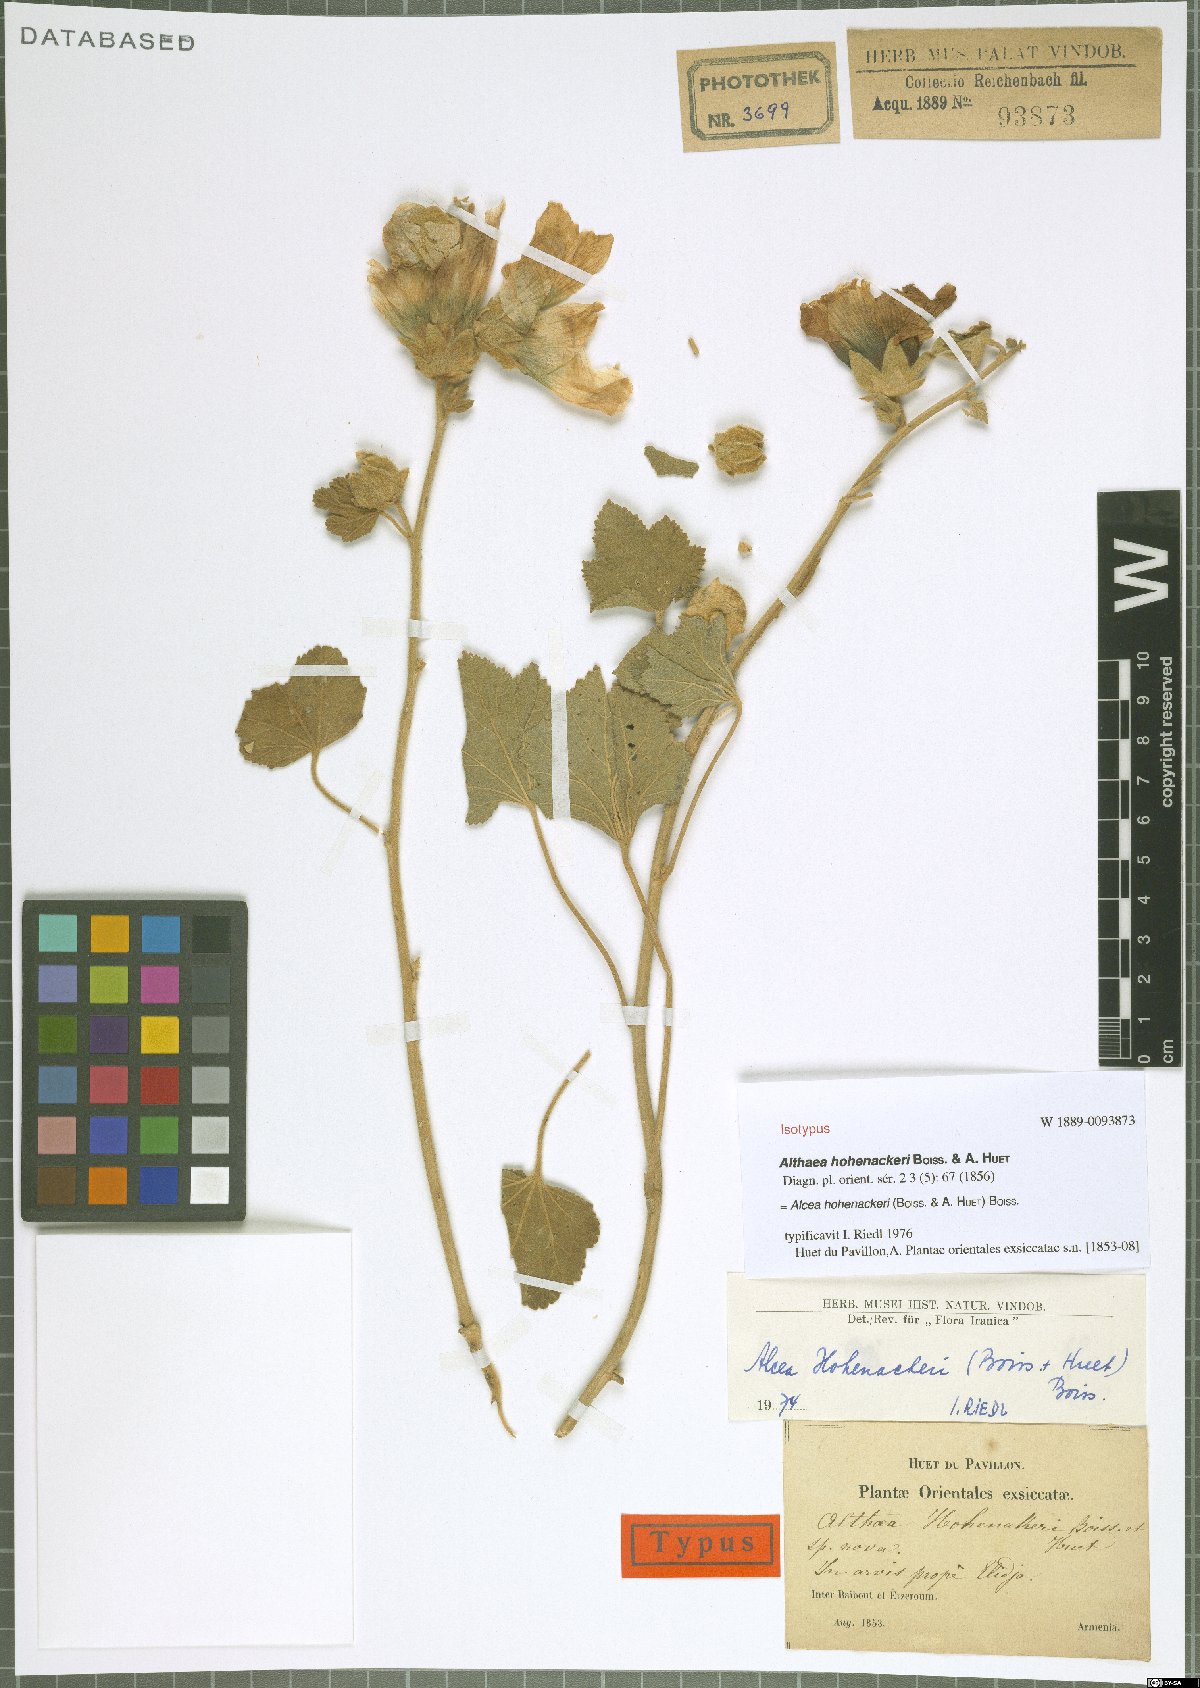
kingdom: Plantae
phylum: Tracheophyta
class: Magnoliopsida
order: Malvales
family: Malvaceae
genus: Alcea
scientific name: Alcea kurdica
